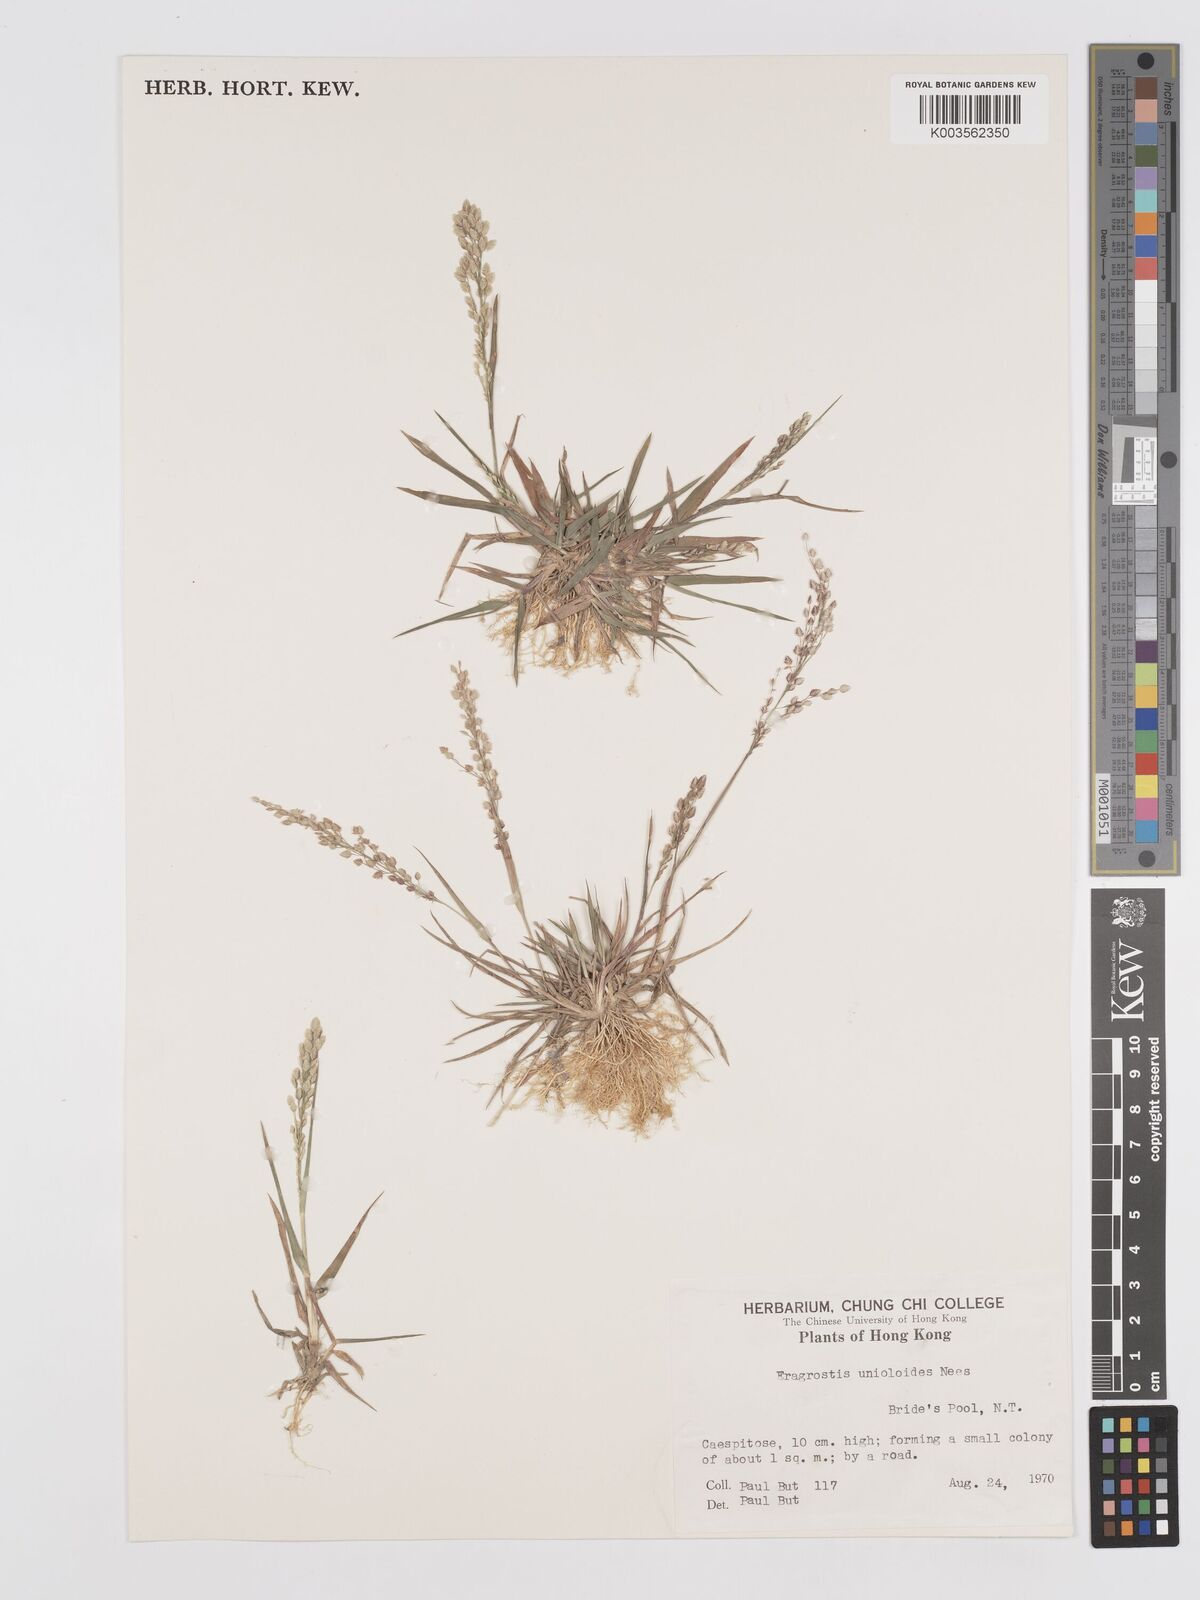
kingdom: Plantae
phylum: Tracheophyta
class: Liliopsida
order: Poales
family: Poaceae
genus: Eragrostis
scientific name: Eragrostis unioloides
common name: Chinese lovegrass
